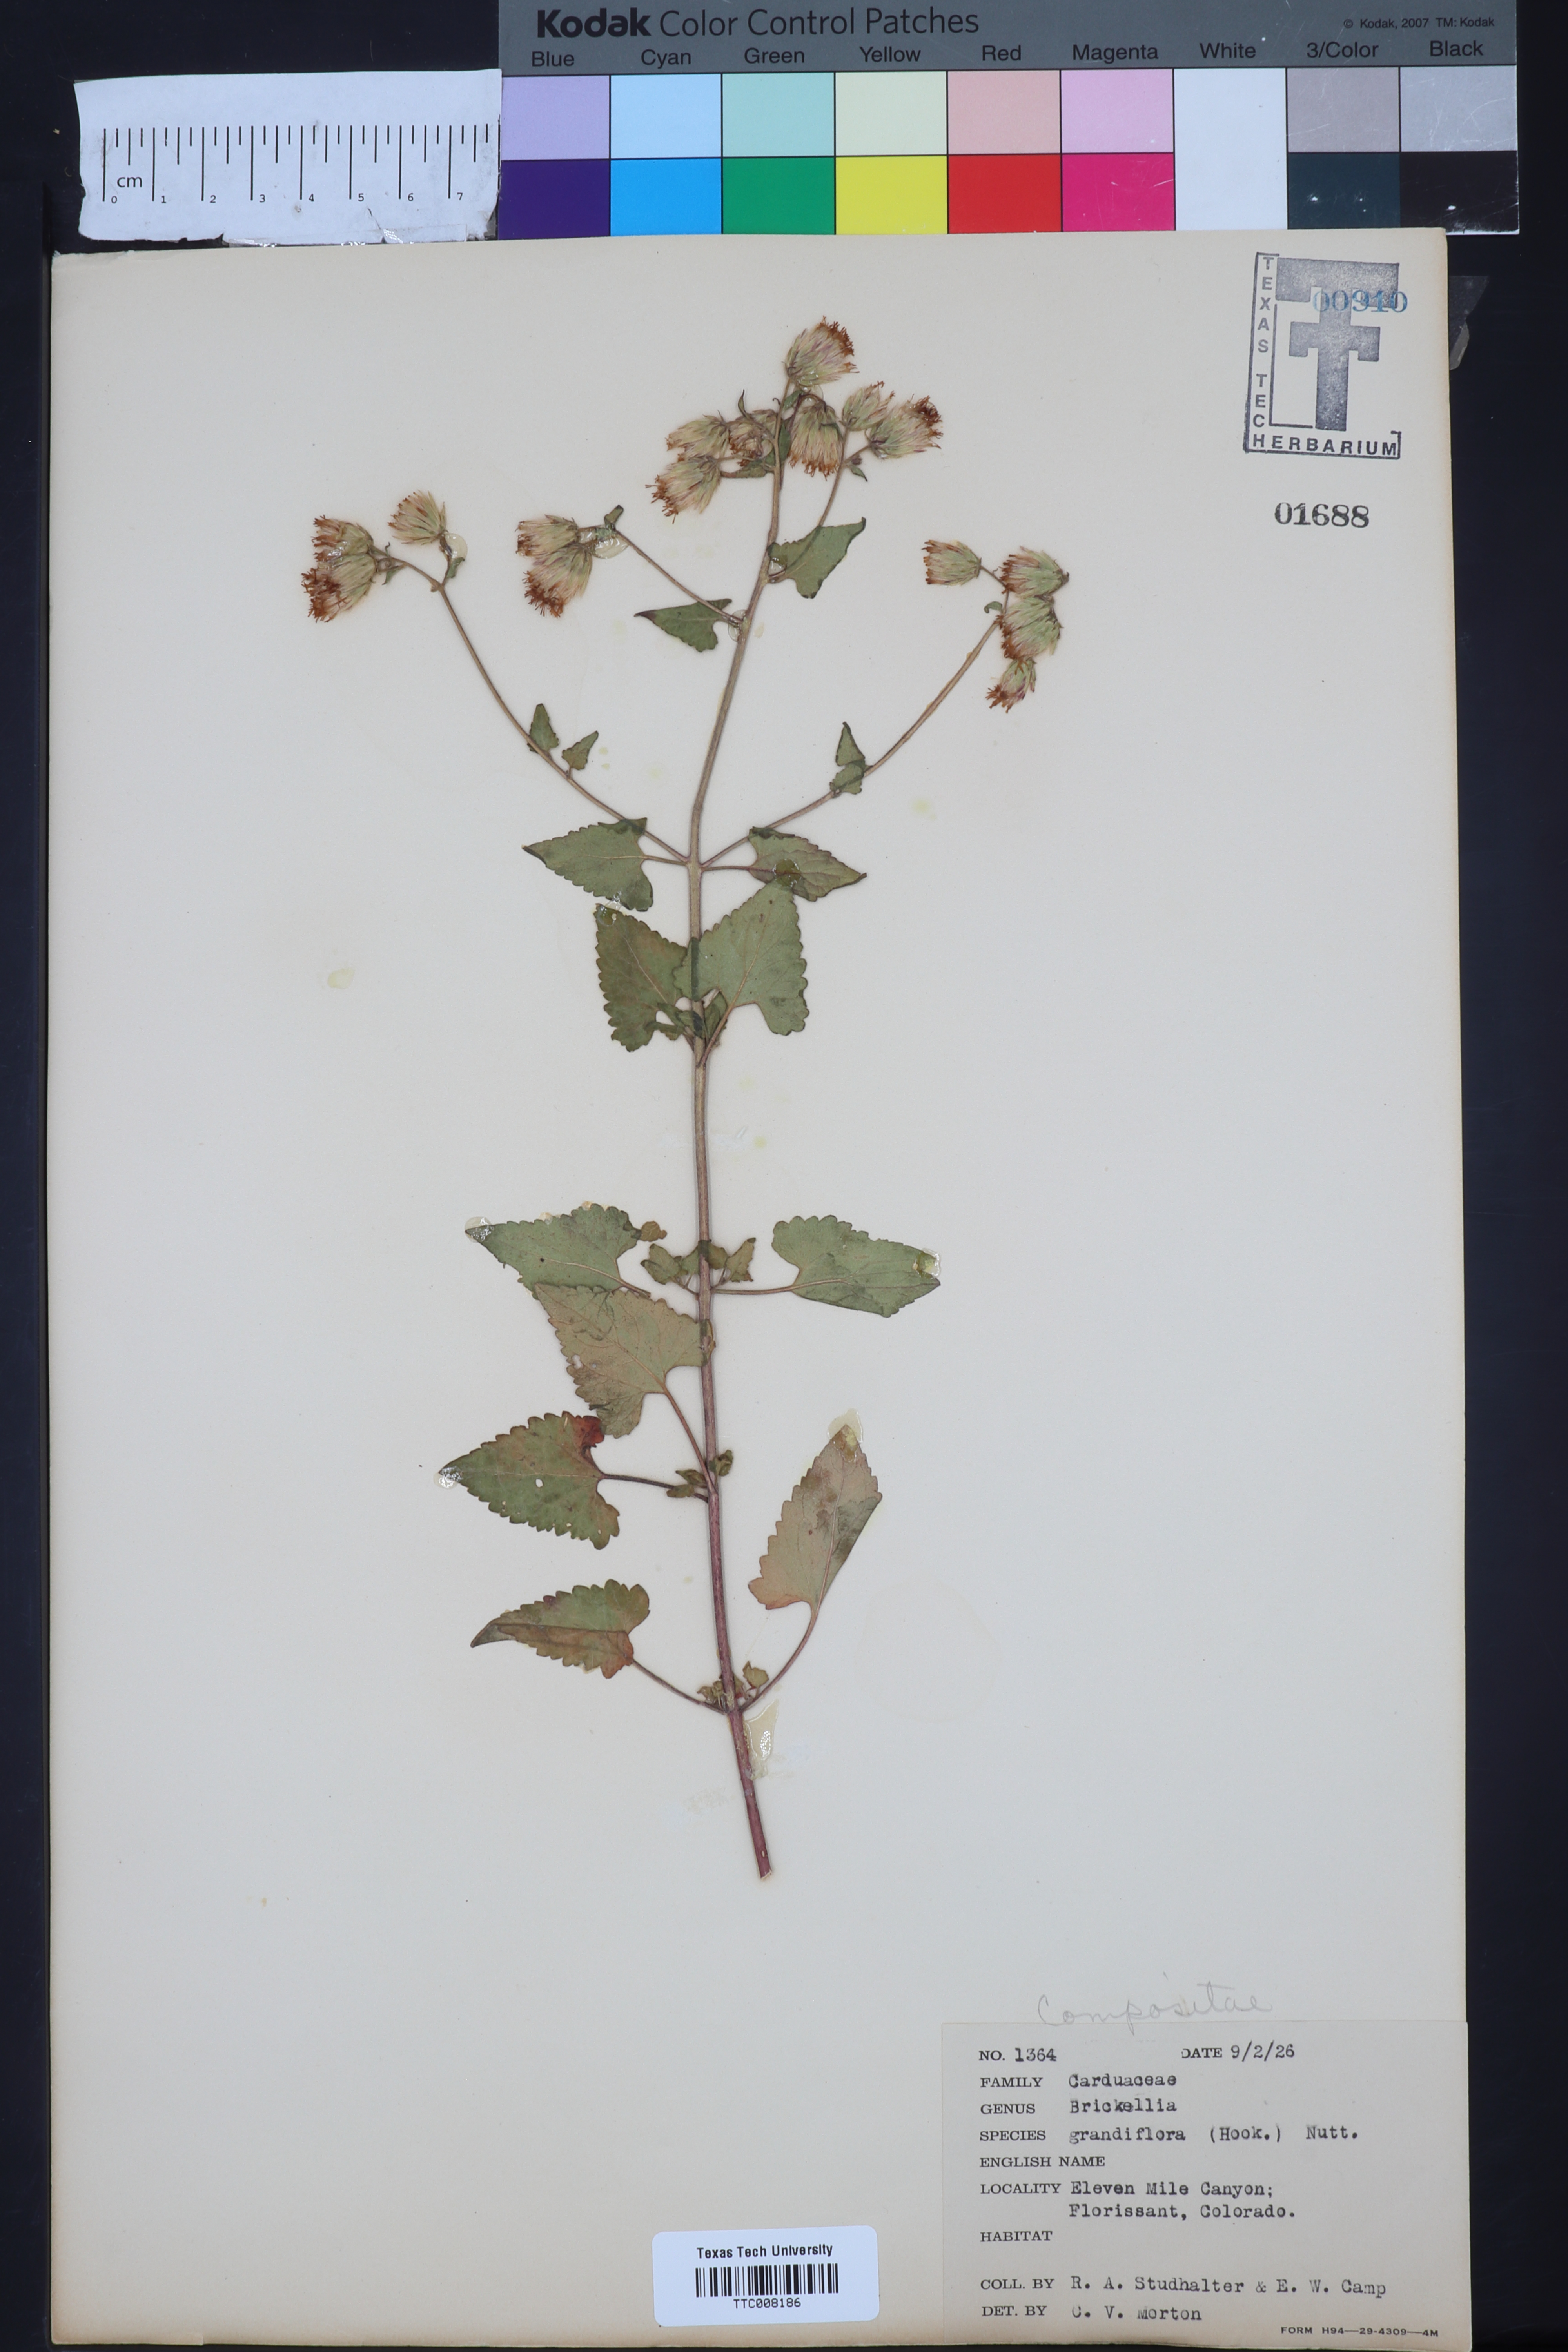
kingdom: Plantae
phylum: Tracheophyta
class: Magnoliopsida
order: Asterales
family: Asteraceae
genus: Brickellia
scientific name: Brickellia grandiflora
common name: Large-flowered brickellia
